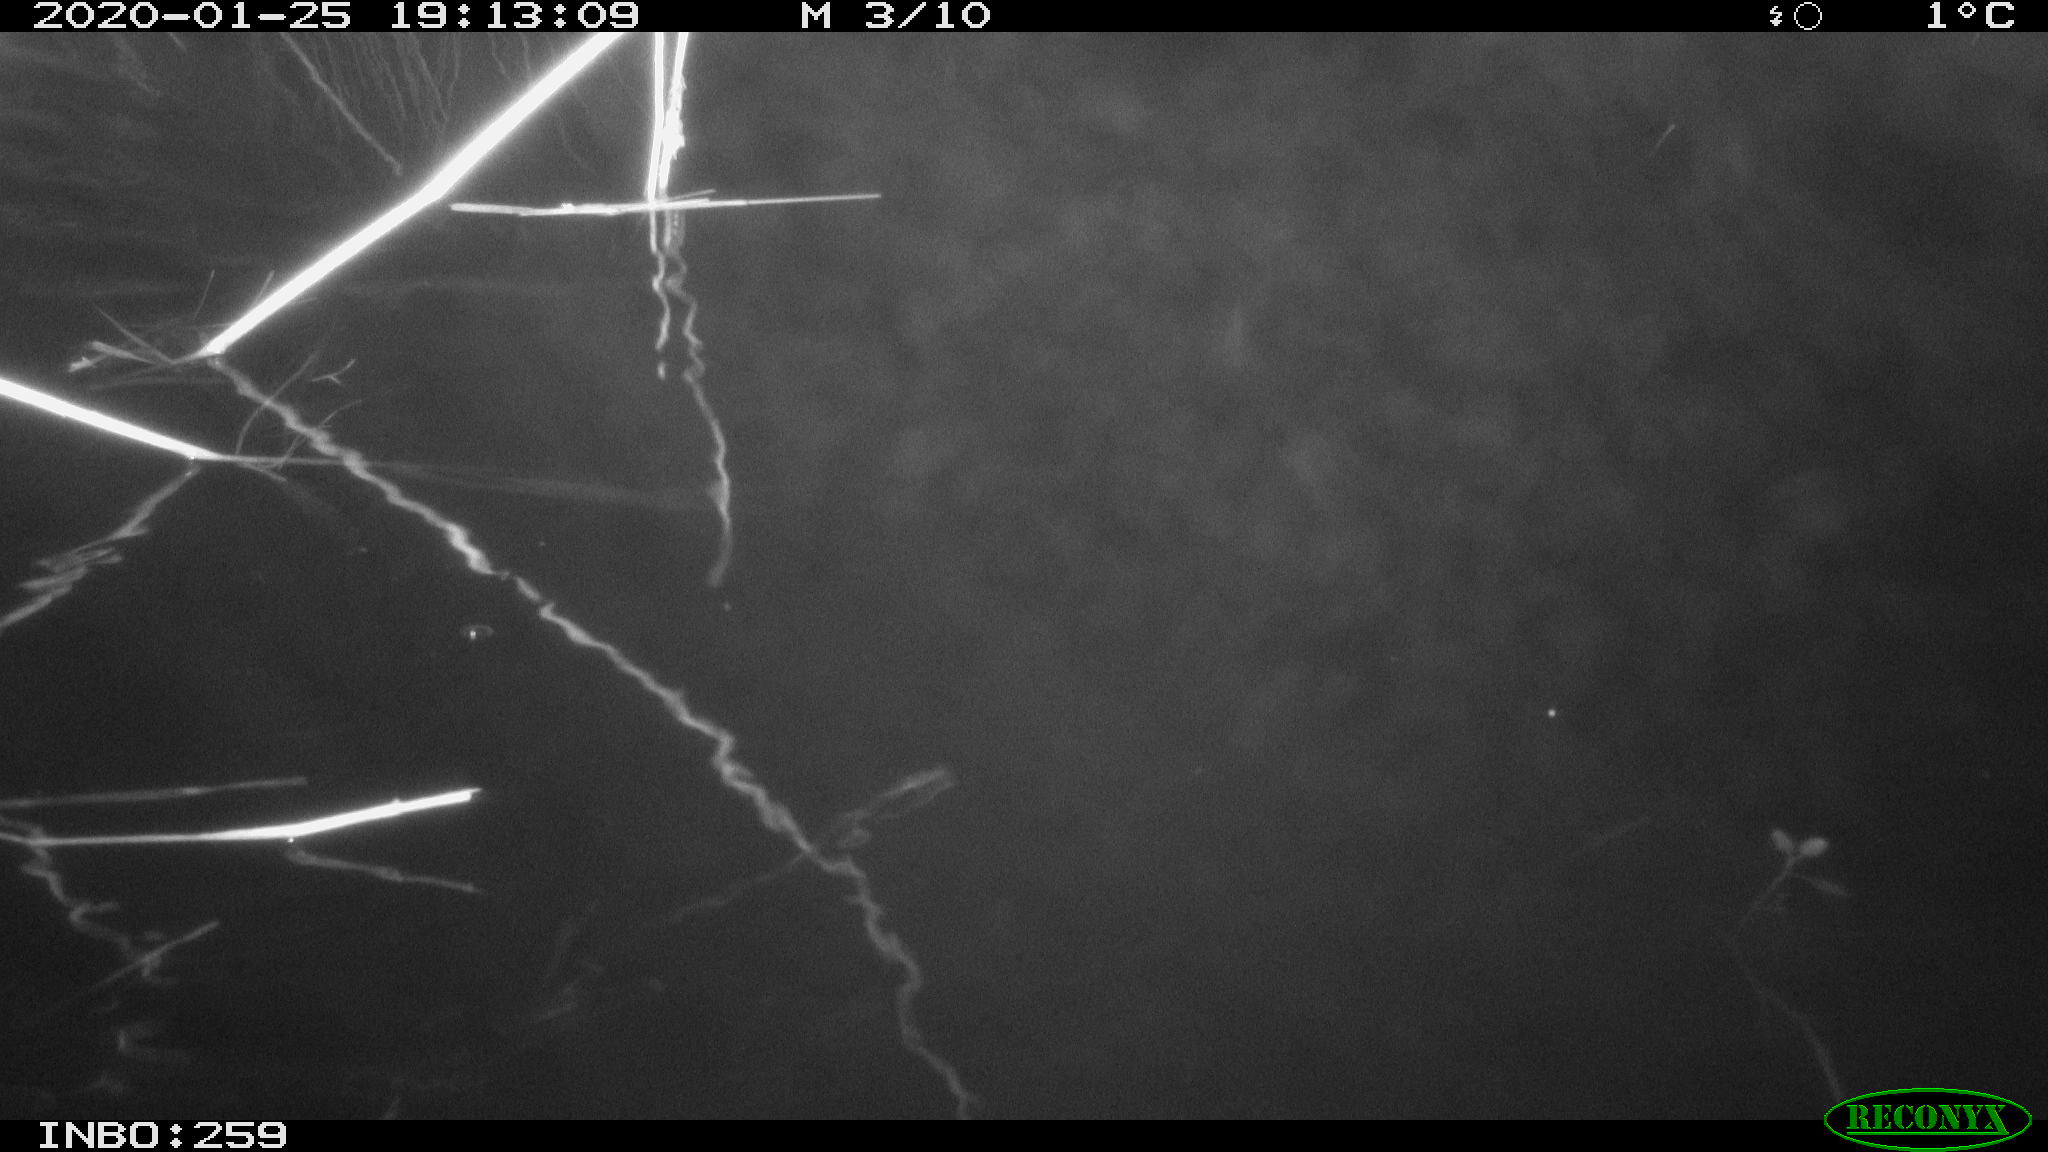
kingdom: Animalia
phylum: Chordata
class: Mammalia
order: Rodentia
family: Muridae
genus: Rattus
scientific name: Rattus norvegicus
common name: Brown rat
